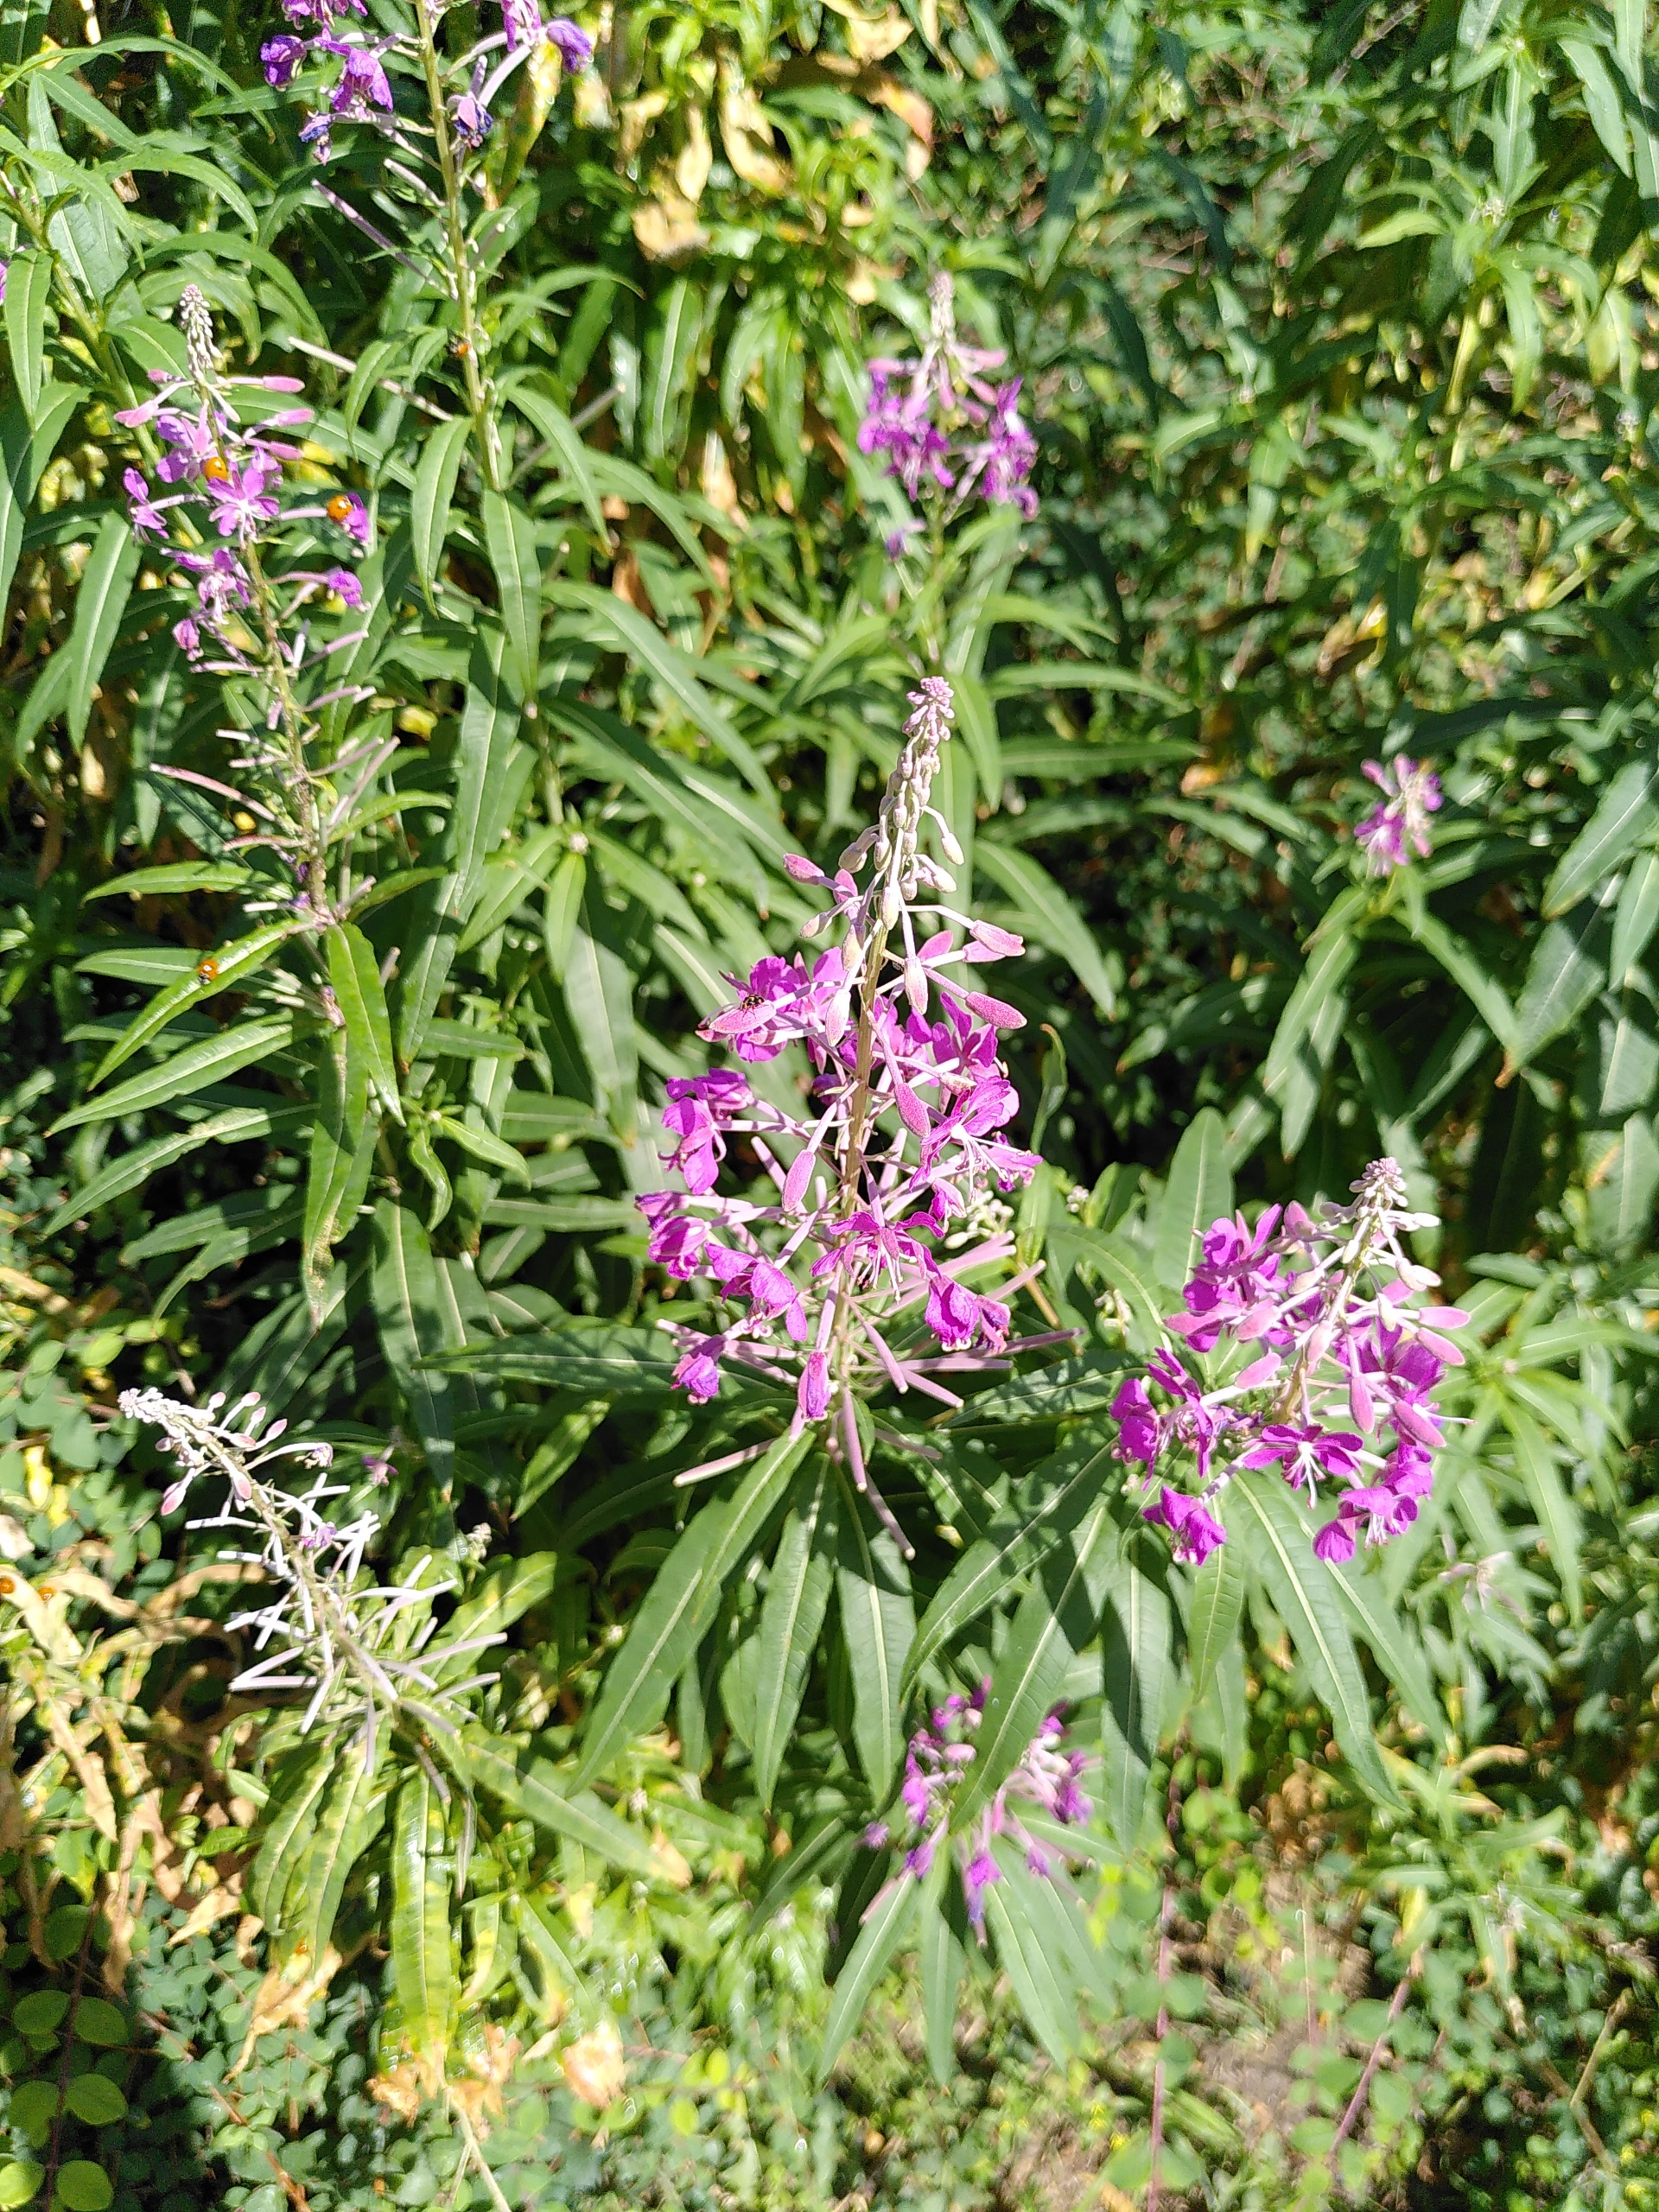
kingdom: Plantae
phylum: Tracheophyta
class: Magnoliopsida
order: Myrtales
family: Onagraceae
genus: Chamaenerion
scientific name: Chamaenerion angustifolium
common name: Gederams
